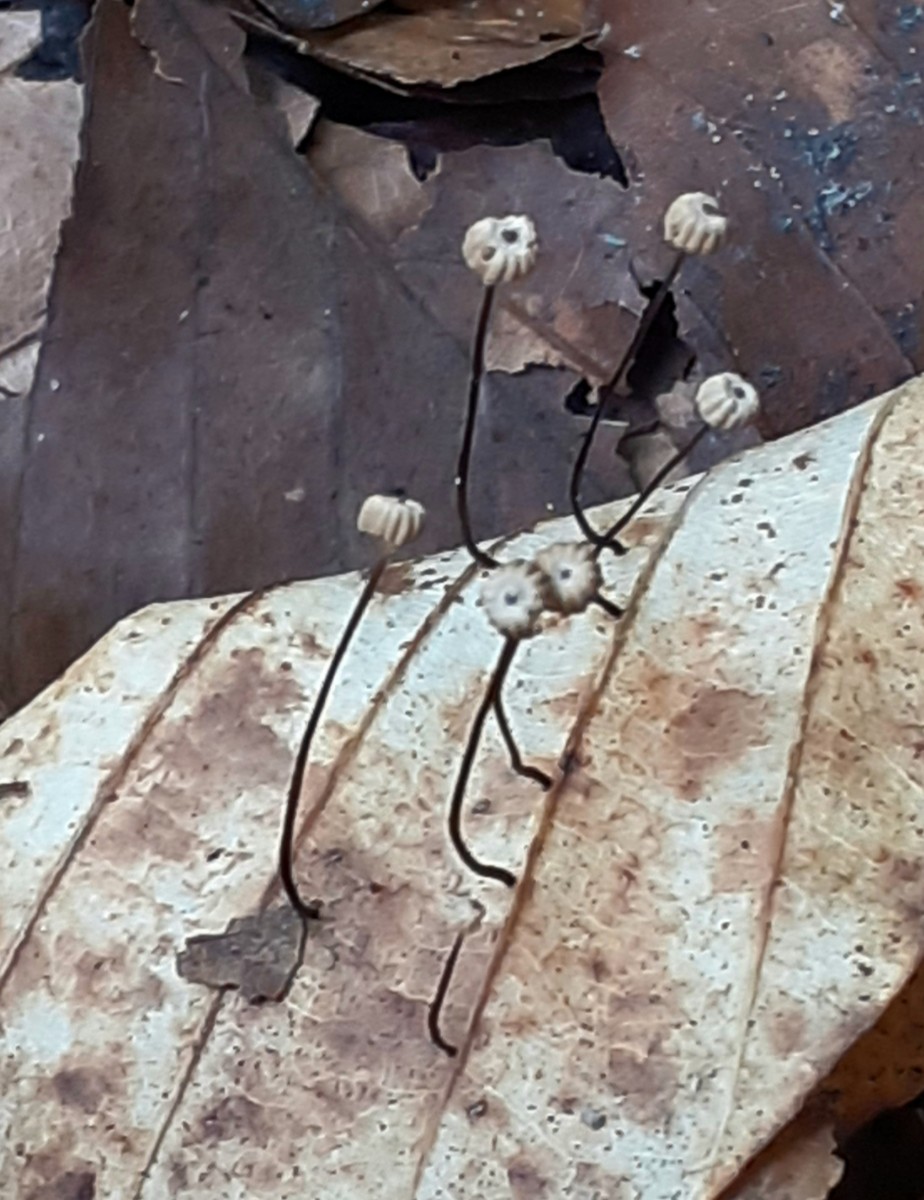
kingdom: Fungi
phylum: Basidiomycota
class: Agaricomycetes
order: Agaricales
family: Marasmiaceae
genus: Marasmius
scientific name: Marasmius bulliardii
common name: furet bruskhat
